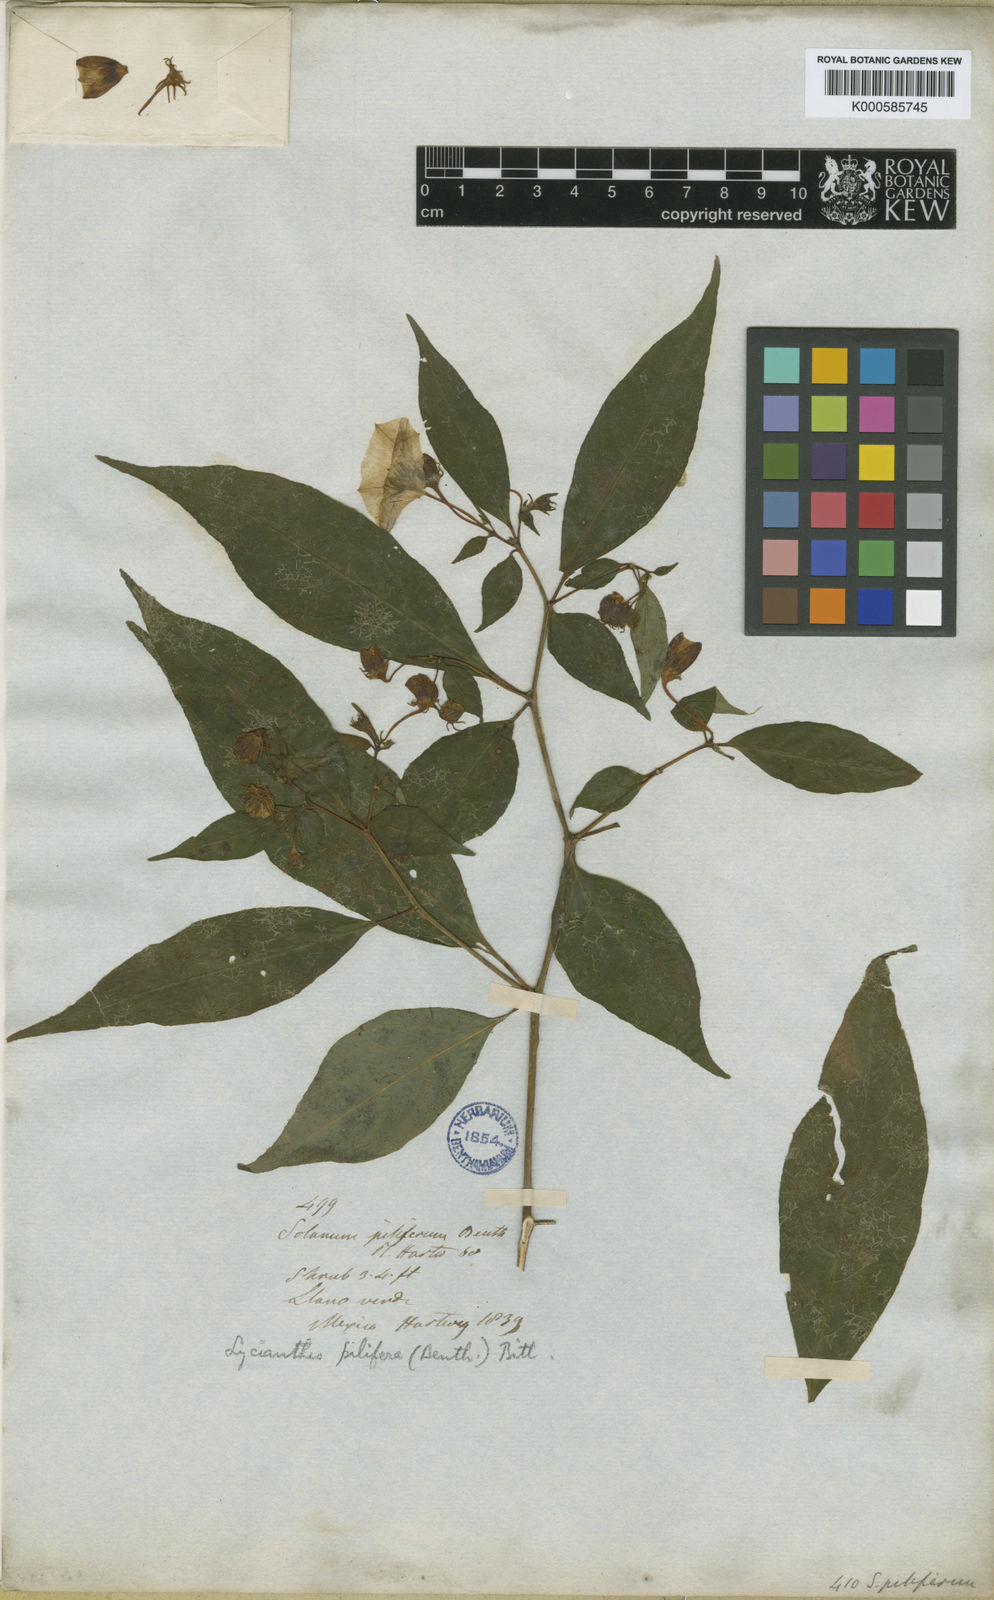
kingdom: Plantae
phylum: Tracheophyta
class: Magnoliopsida
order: Solanales
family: Solanaceae
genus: Lycianthes
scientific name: Lycianthes pilifera
